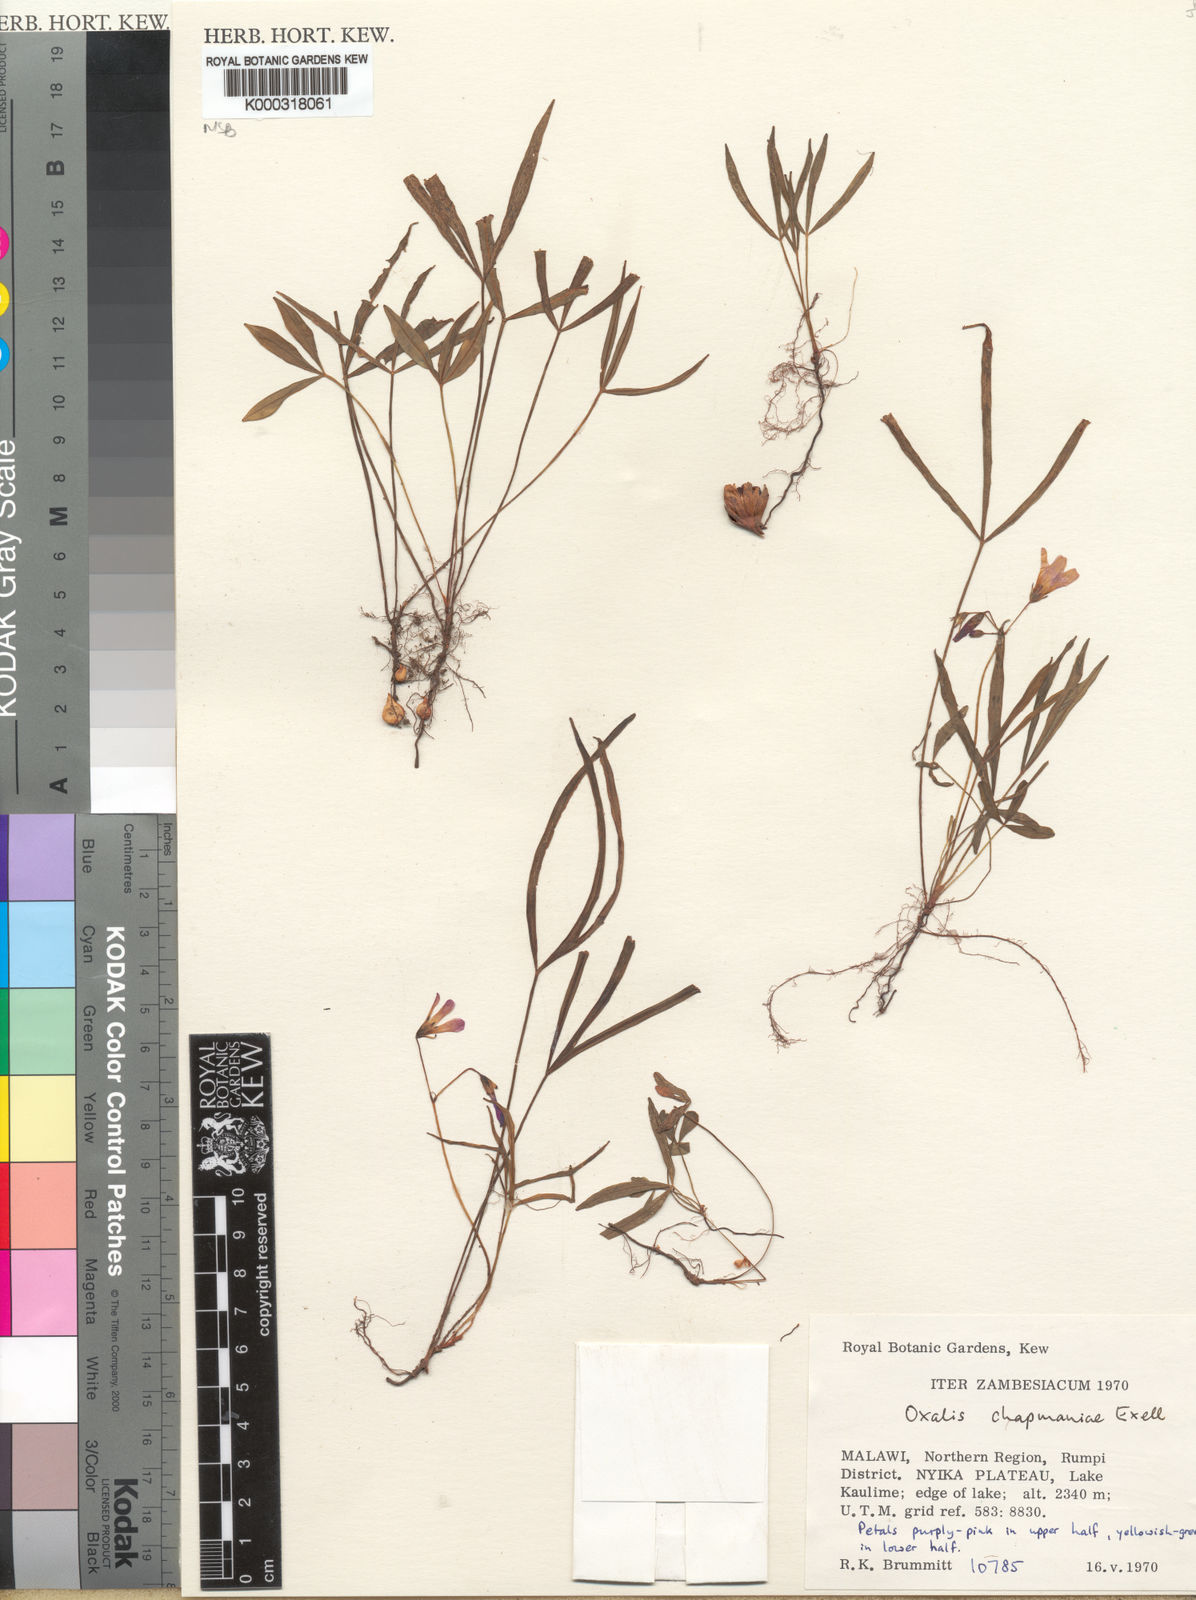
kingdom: Plantae
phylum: Tracheophyta
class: Magnoliopsida
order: Oxalidales
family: Oxalidaceae
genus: Oxalis
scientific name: Oxalis chapmaniae
